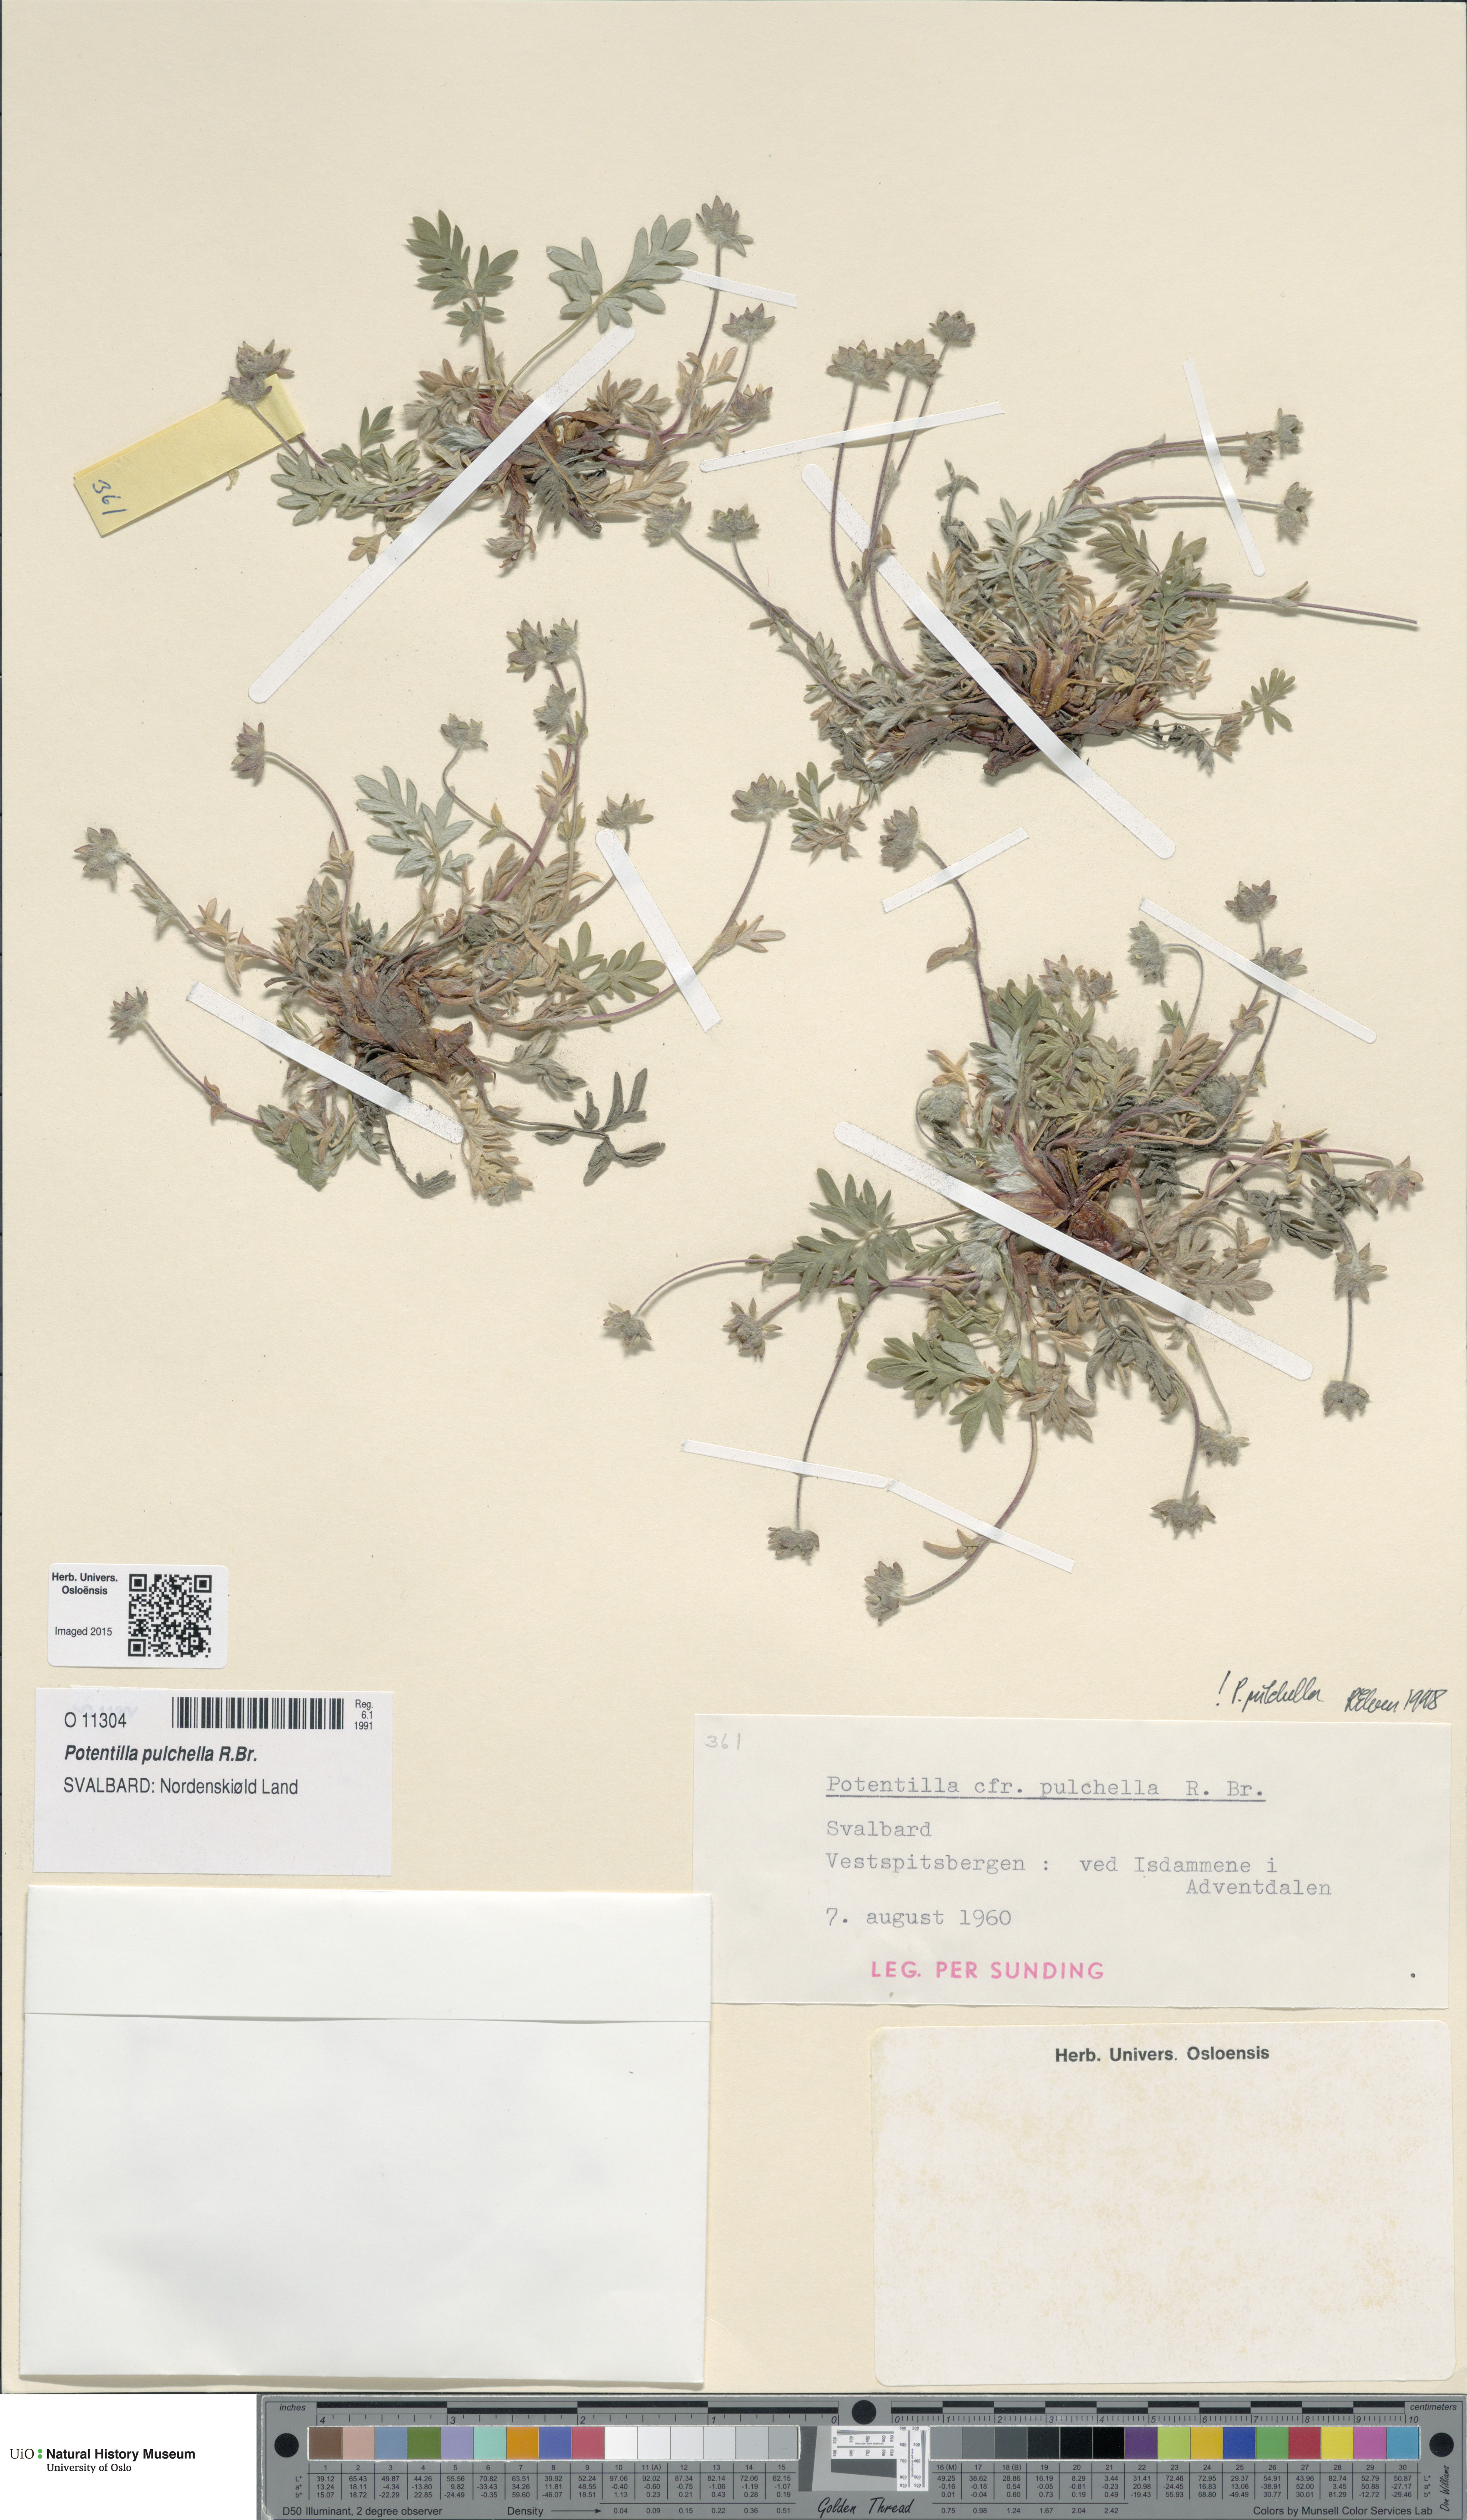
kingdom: Plantae
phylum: Tracheophyta
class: Magnoliopsida
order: Rosales
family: Rosaceae
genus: Potentilla
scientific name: Potentilla pulchella
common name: Pretty cinquefoil
